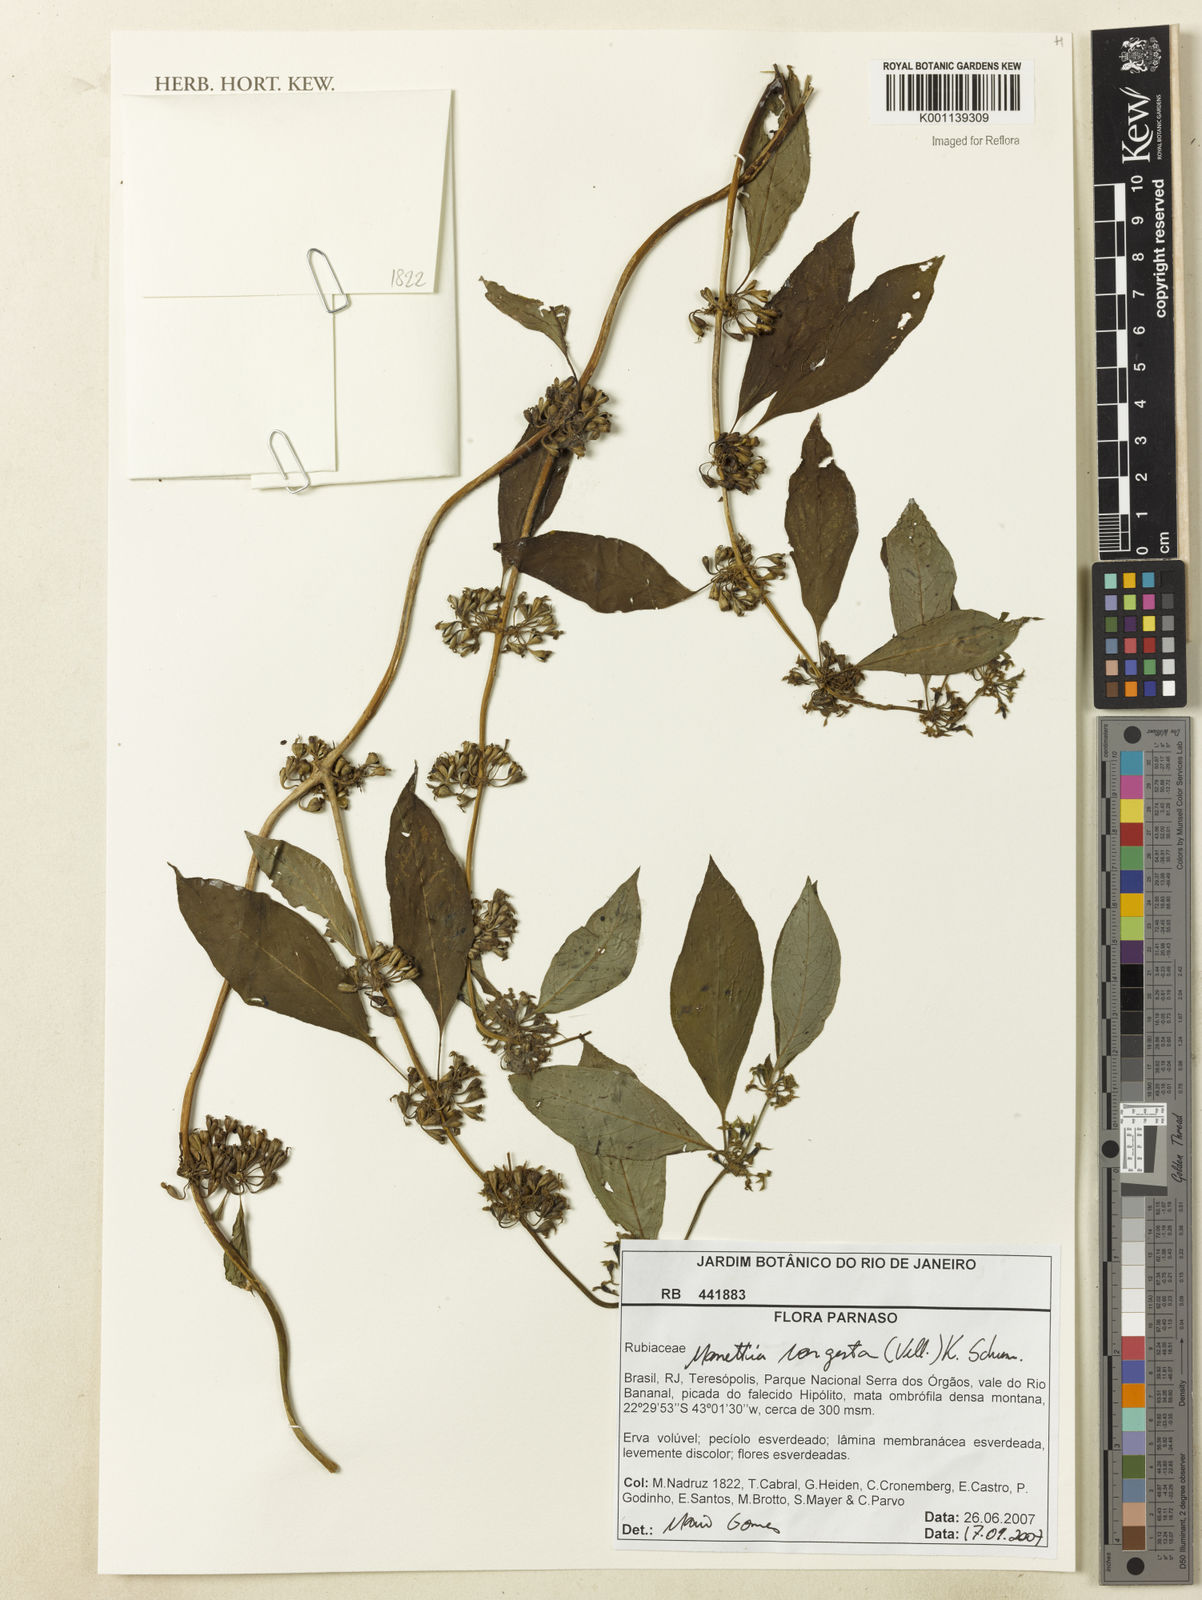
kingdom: Plantae
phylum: Tracheophyta
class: Magnoliopsida
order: Gentianales
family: Rubiaceae
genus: Manettia
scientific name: Manettia congesta
